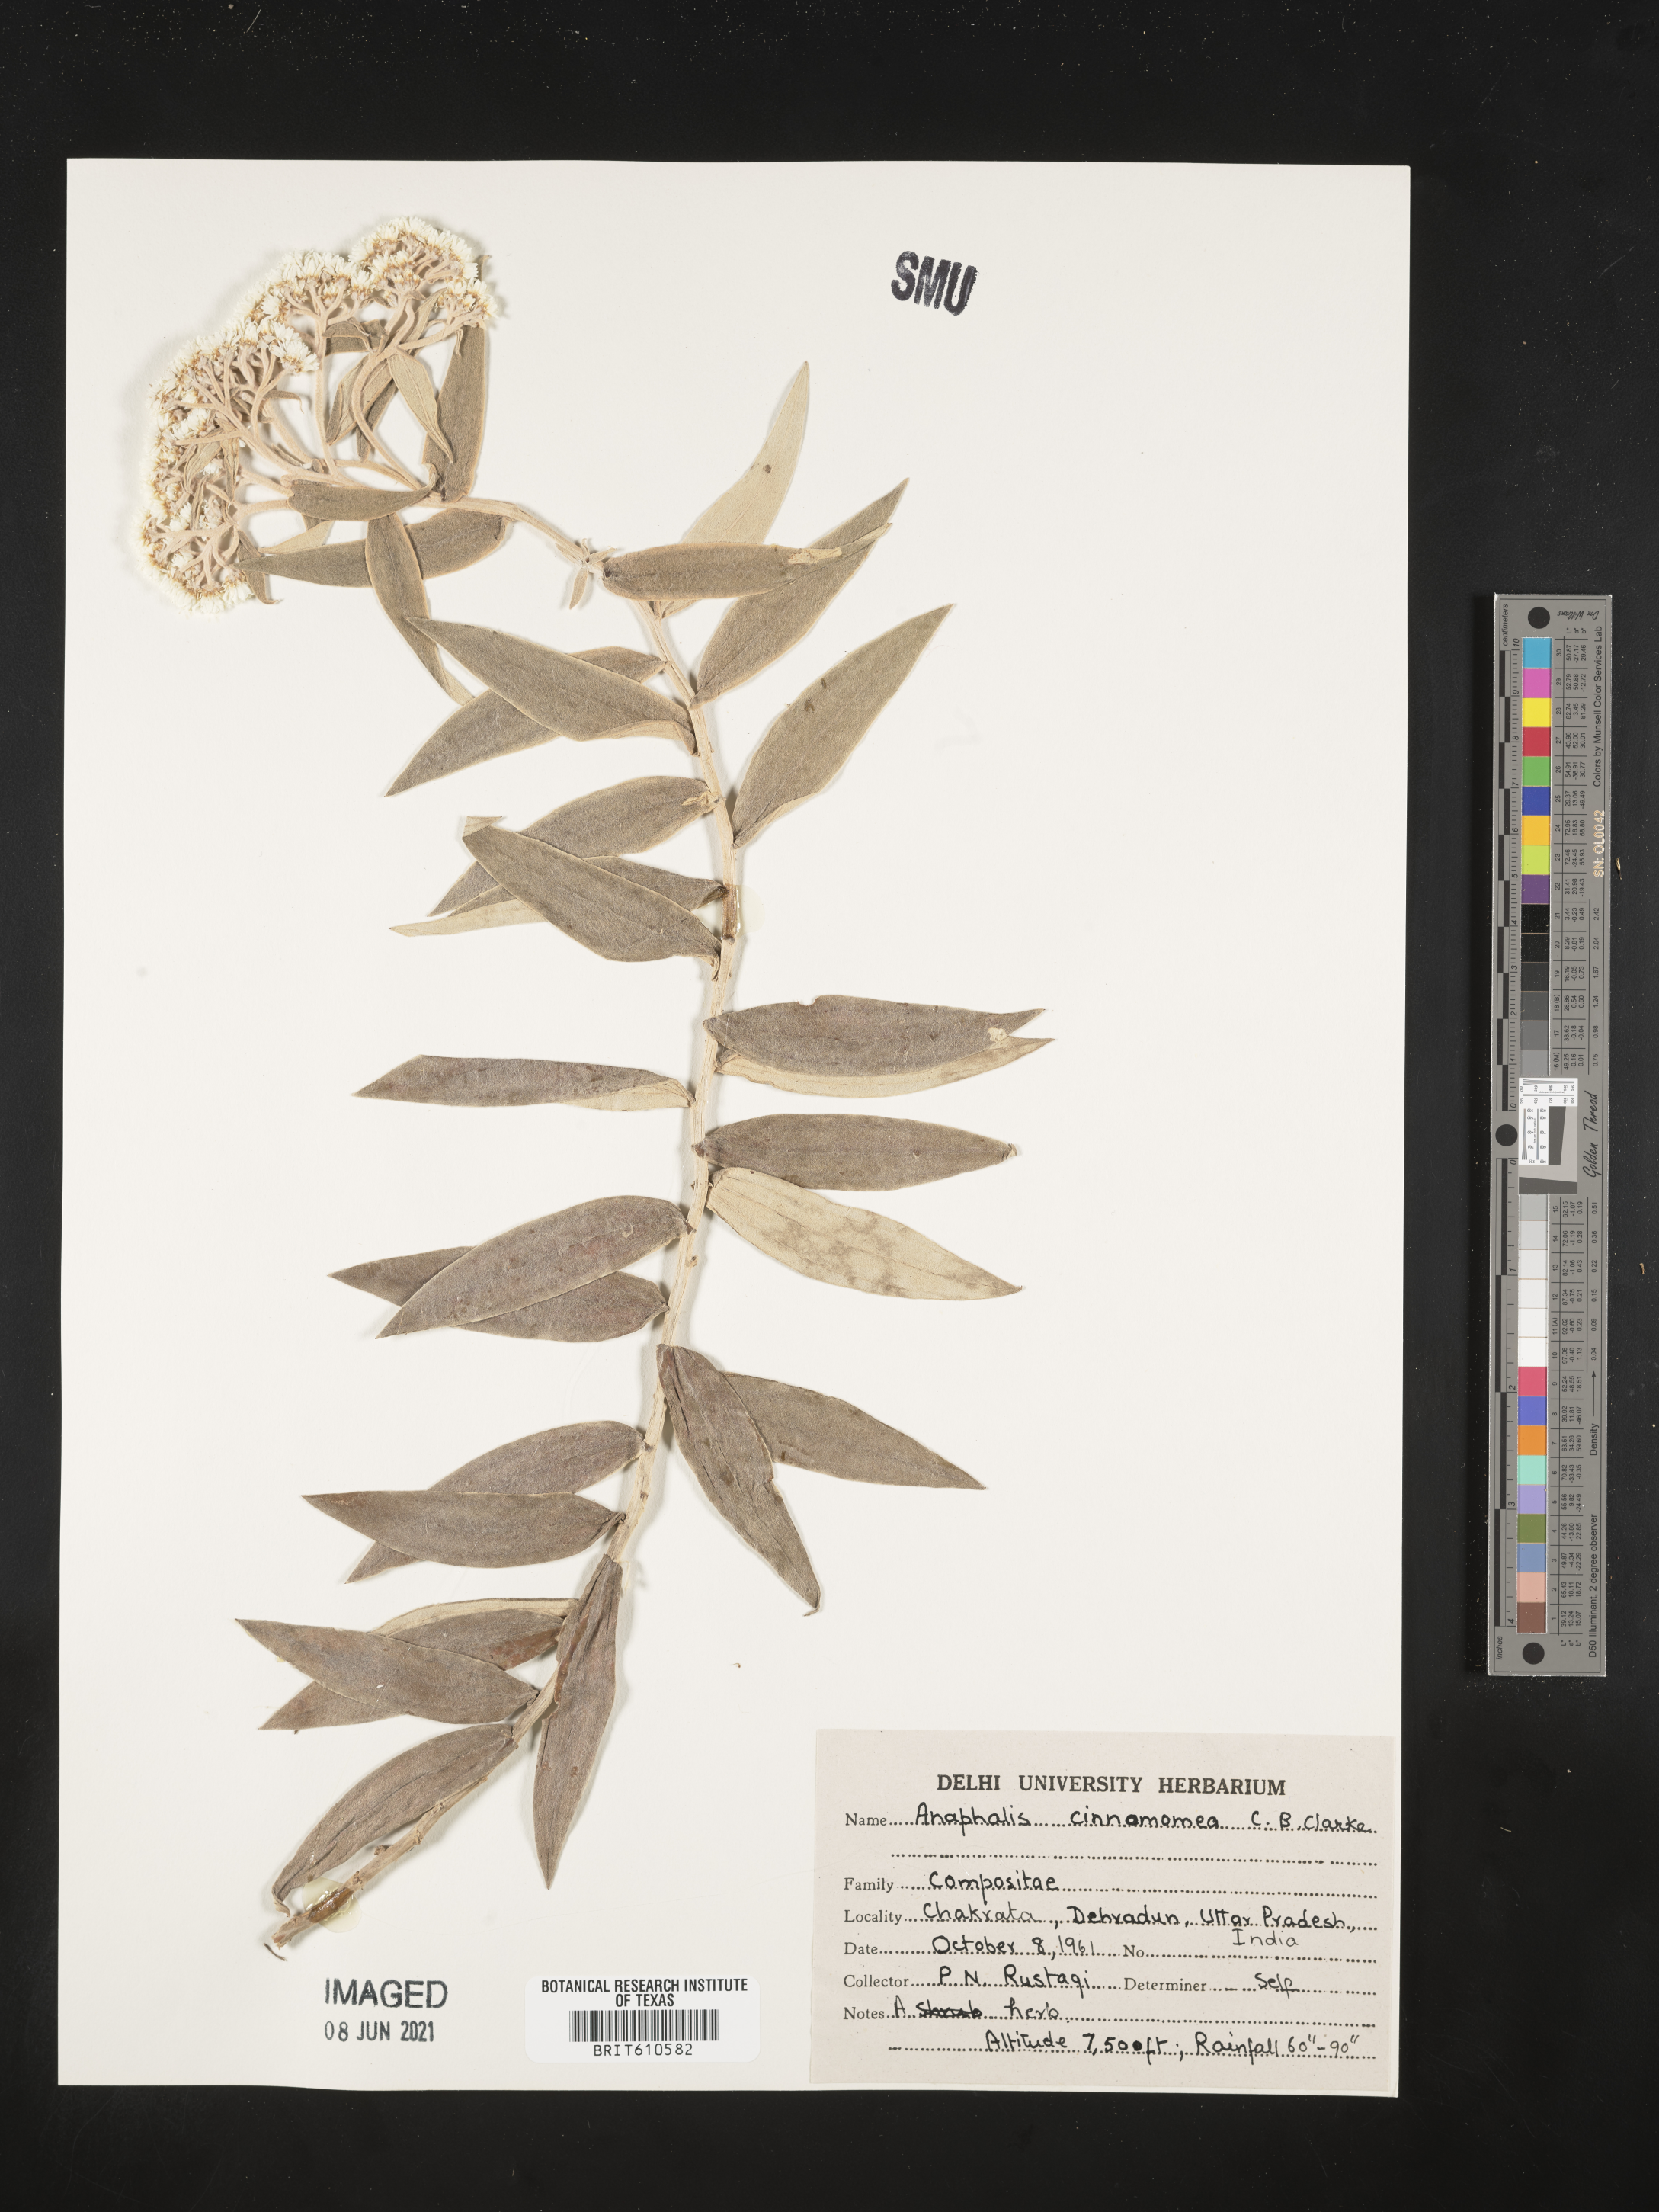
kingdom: Plantae
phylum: Tracheophyta
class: Magnoliopsida
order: Asterales
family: Asteraceae
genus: Anaphalis
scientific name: Anaphalis marcescens
